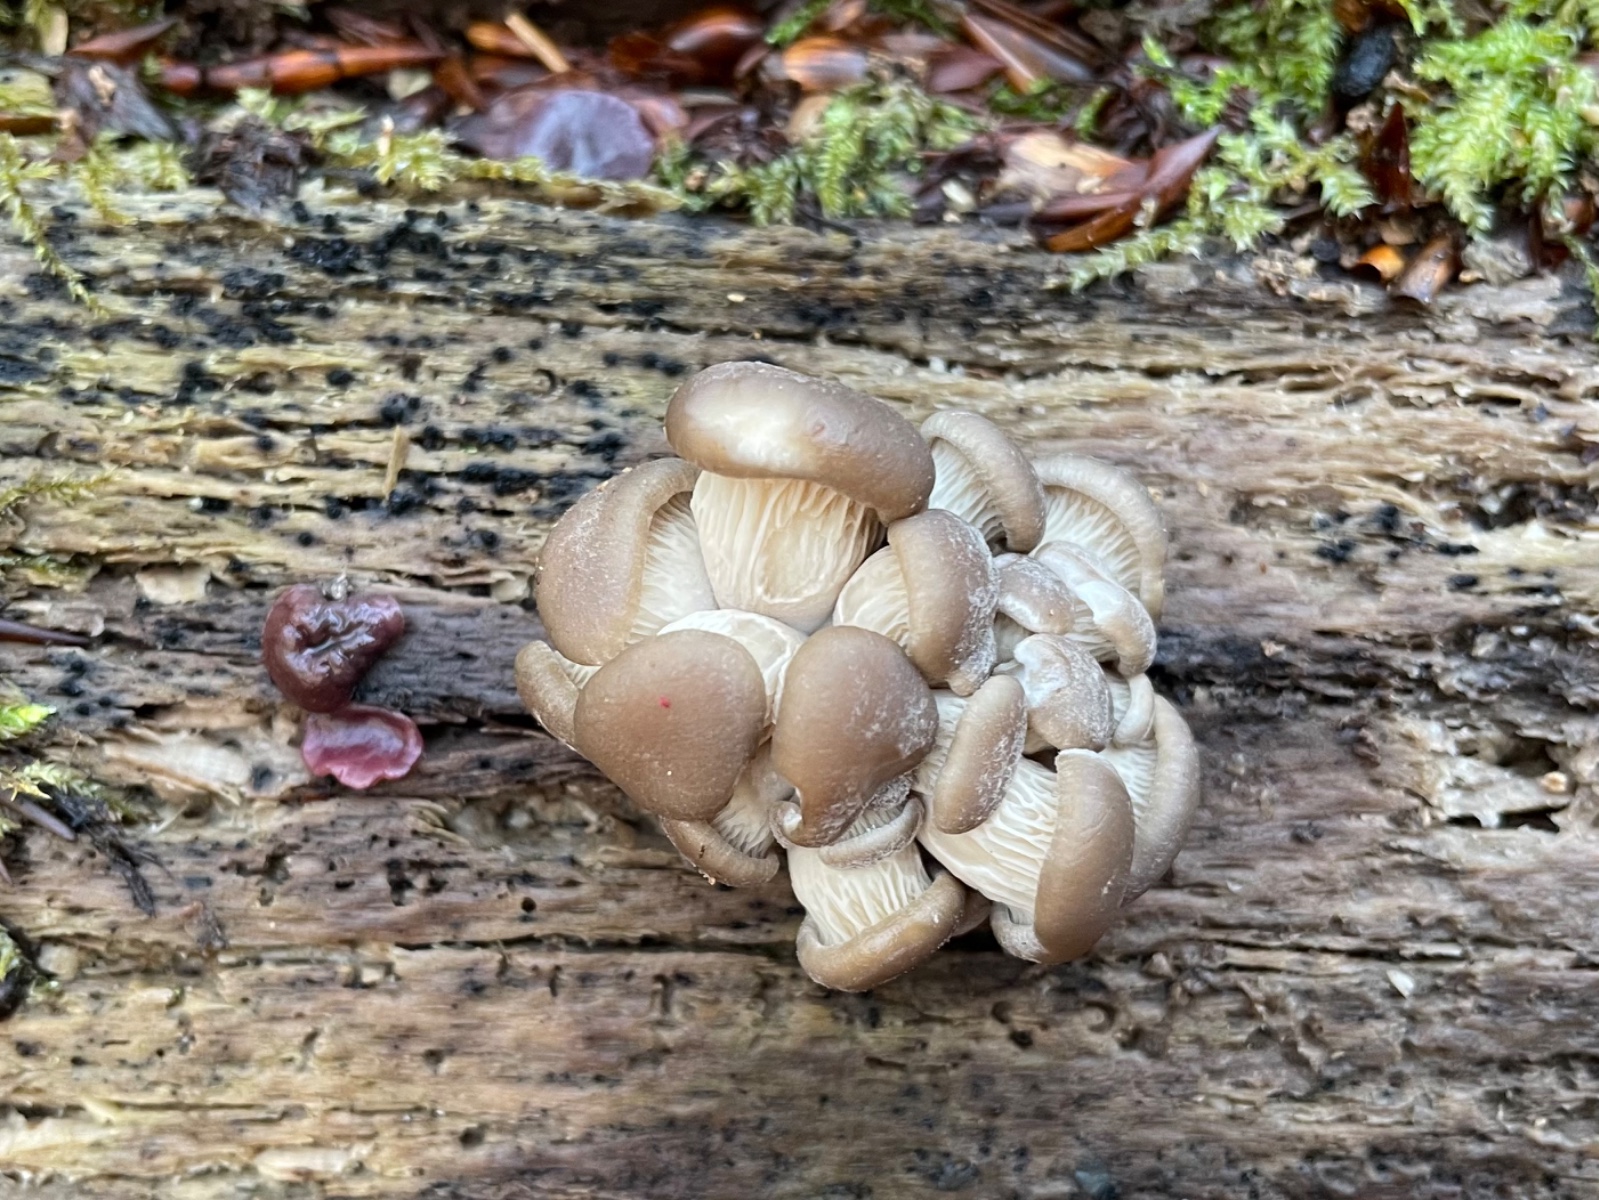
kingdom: Fungi
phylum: Basidiomycota
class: Agaricomycetes
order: Agaricales
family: Pleurotaceae
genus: Pleurotus
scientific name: Pleurotus ostreatus
